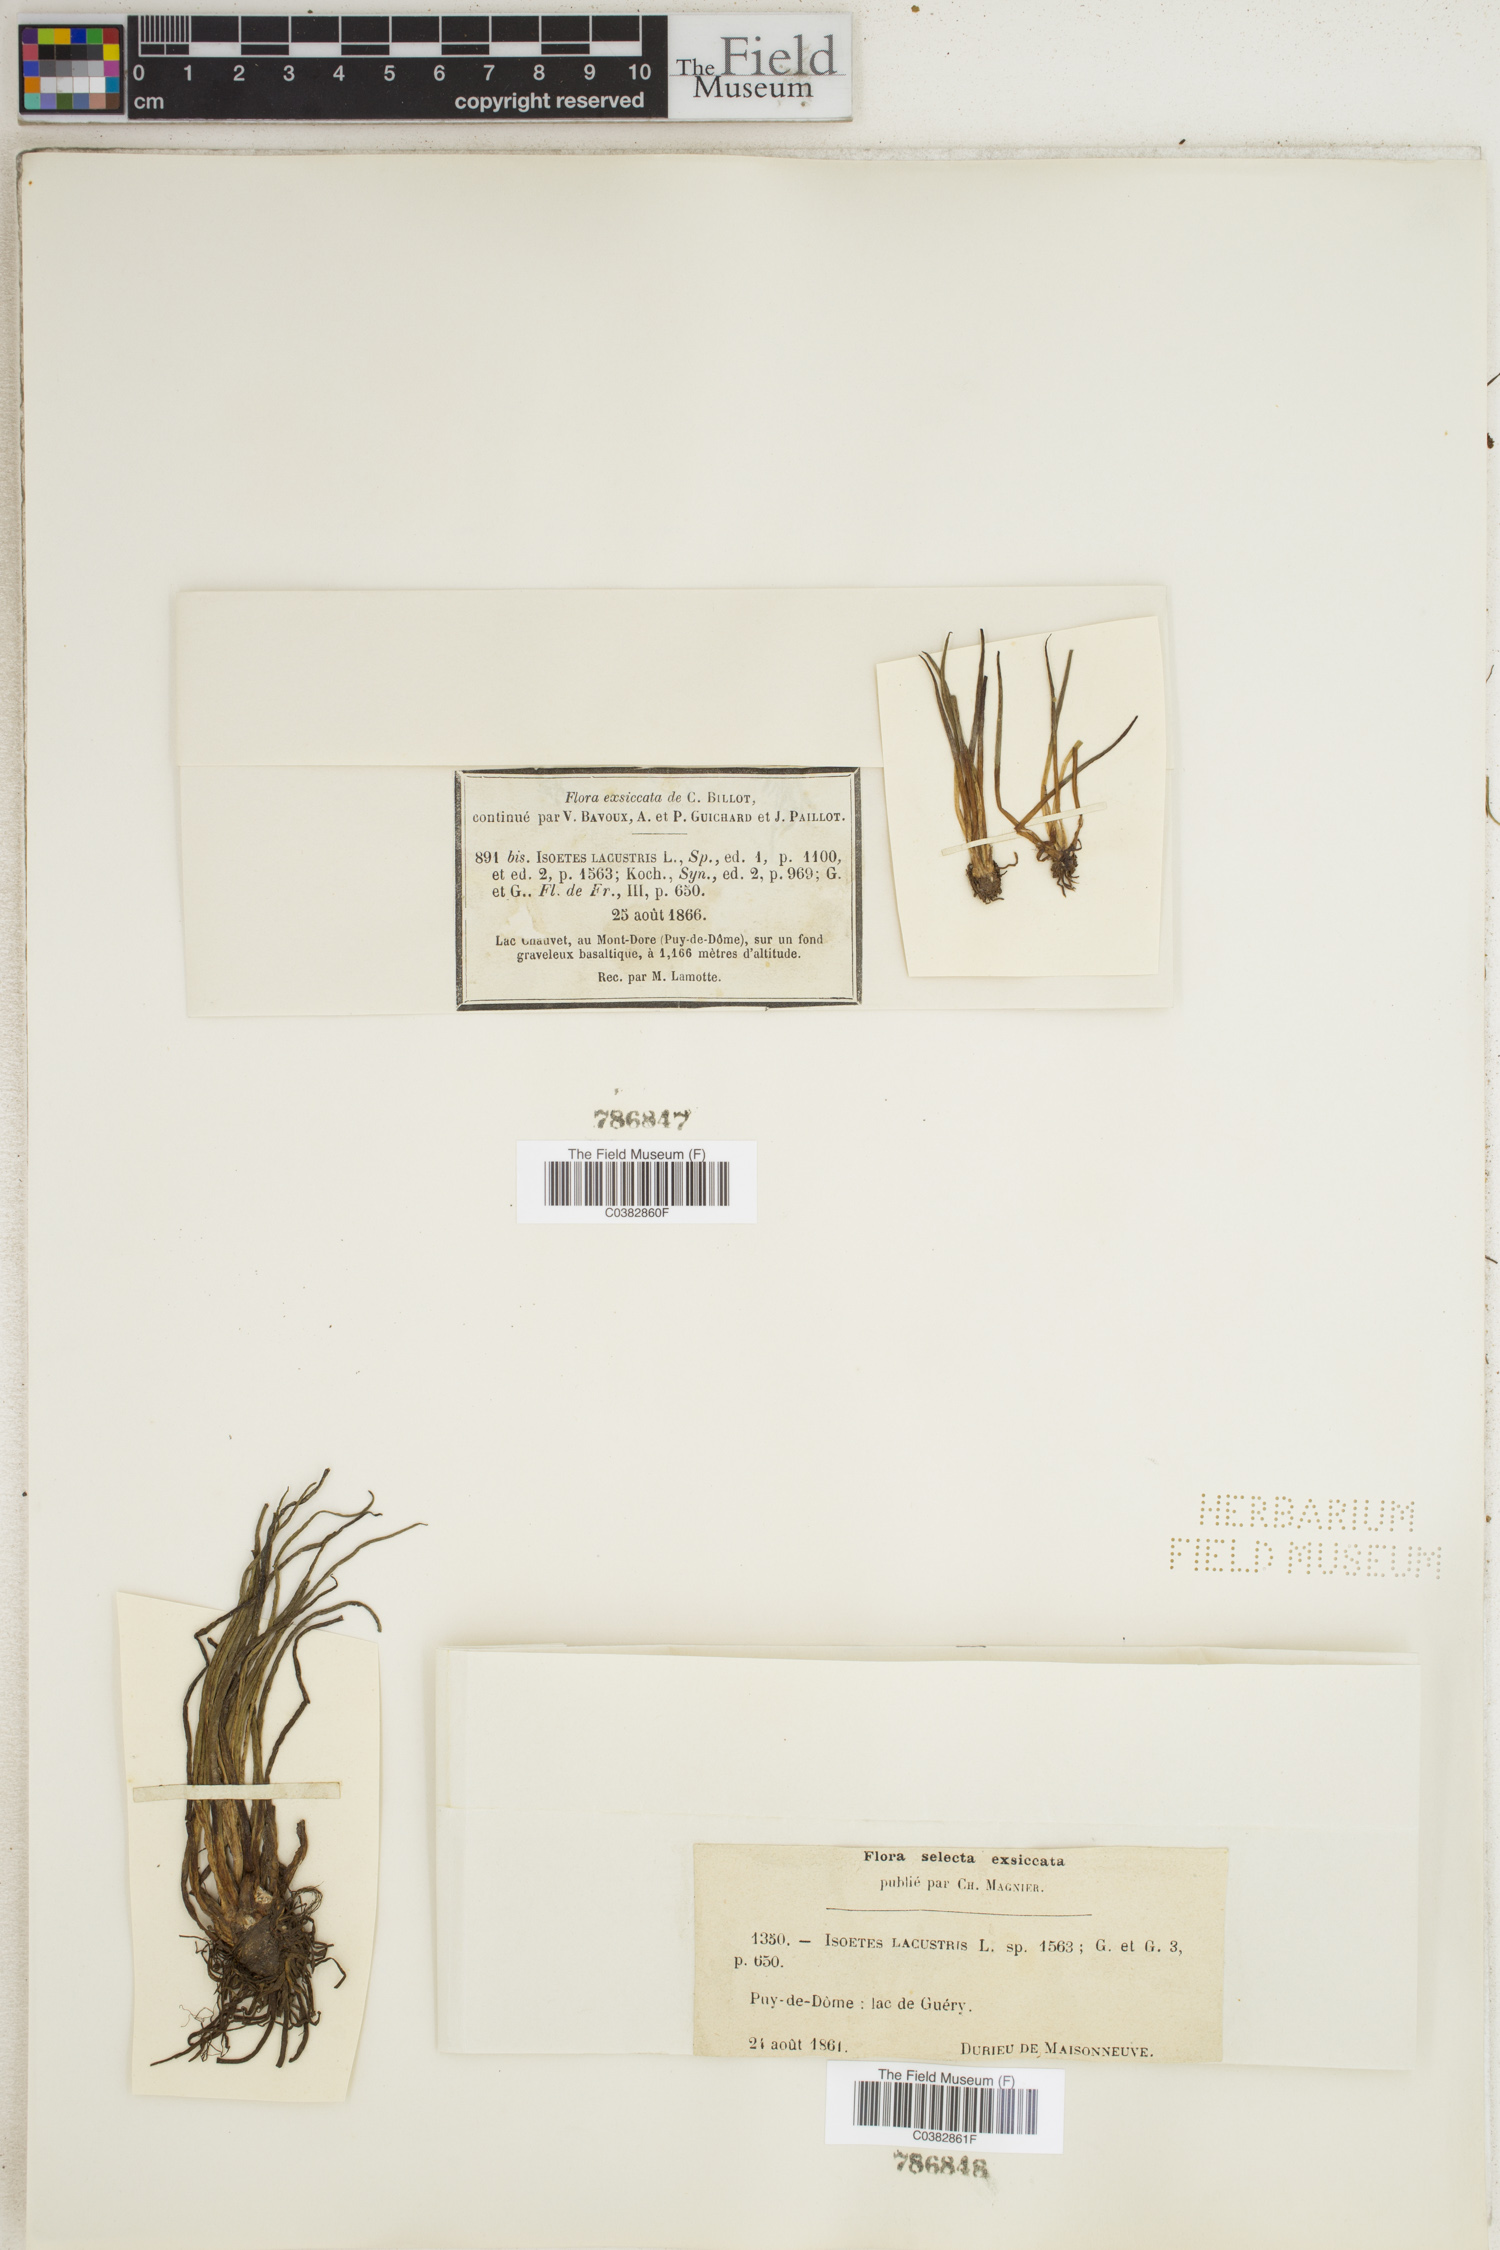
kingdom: Plantae
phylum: Tracheophyta
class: Lycopodiopsida
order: Isoetales
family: Isoetaceae
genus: Isoetes
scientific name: Isoetes lacustris
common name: Common quillwort
